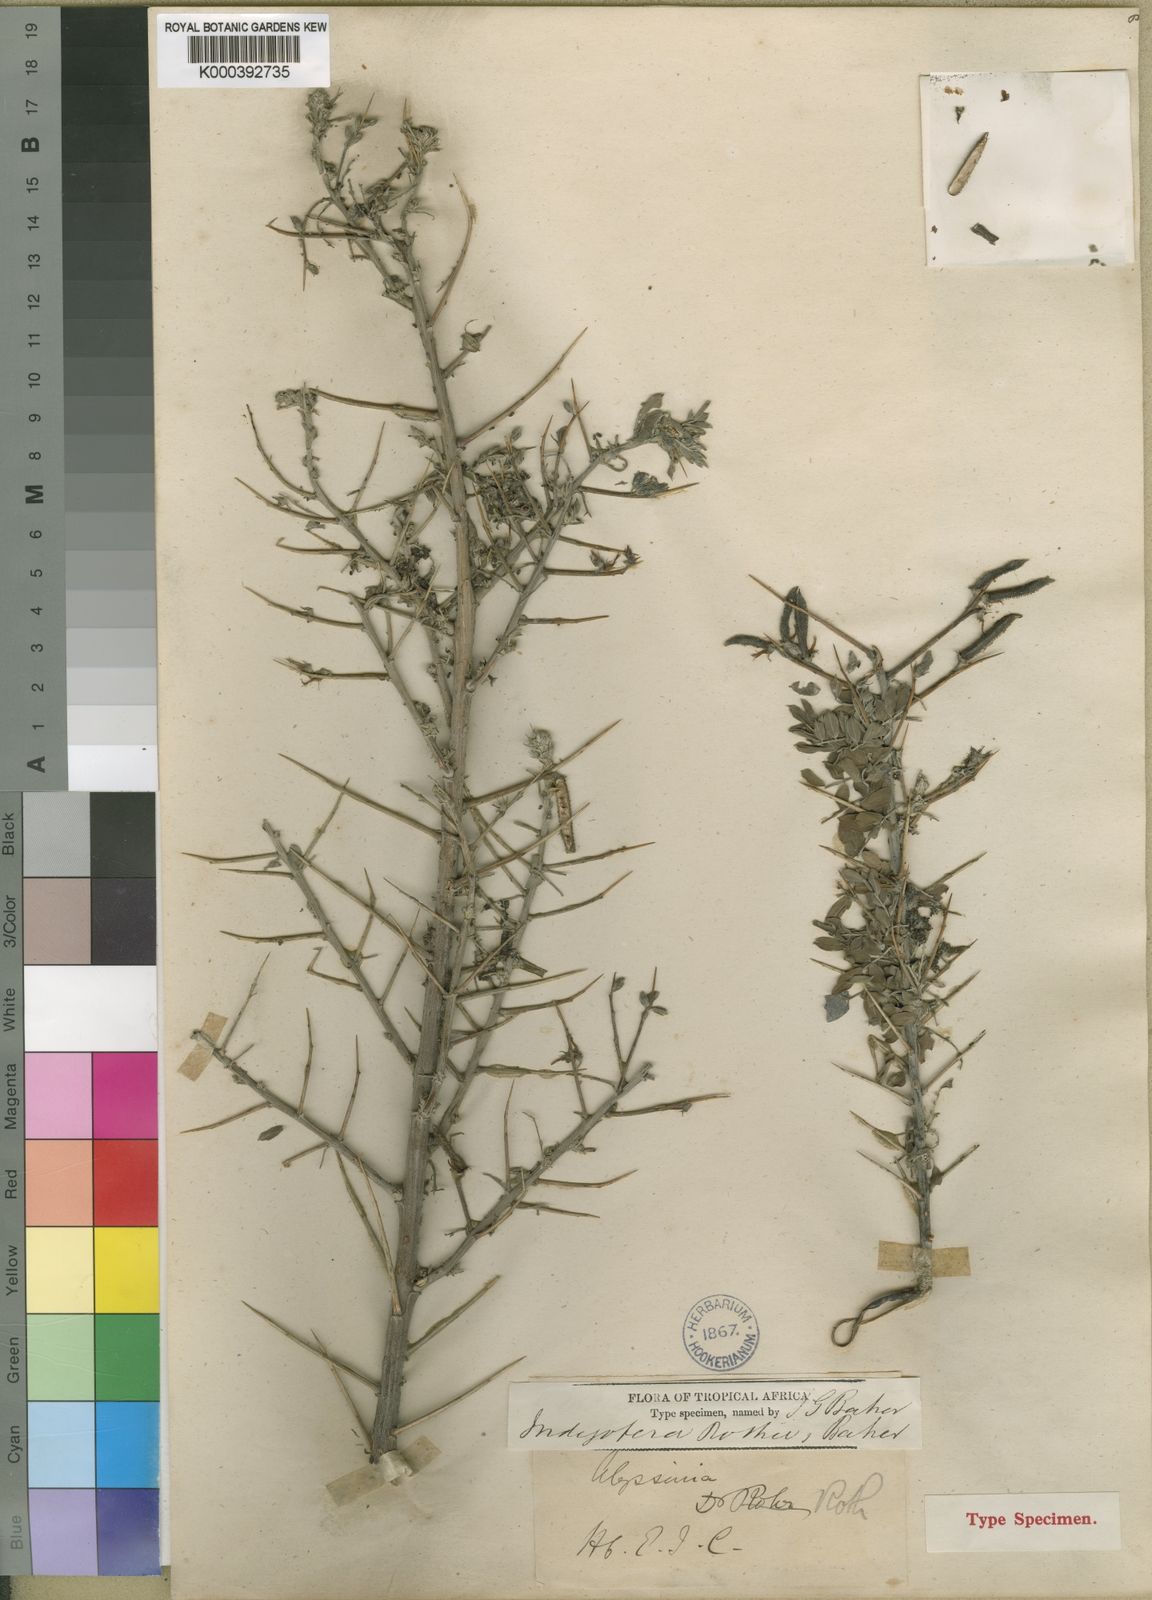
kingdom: Plantae
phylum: Tracheophyta
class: Magnoliopsida
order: Fabales
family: Fabaceae
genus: Indigofera
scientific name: Indigofera rothii
